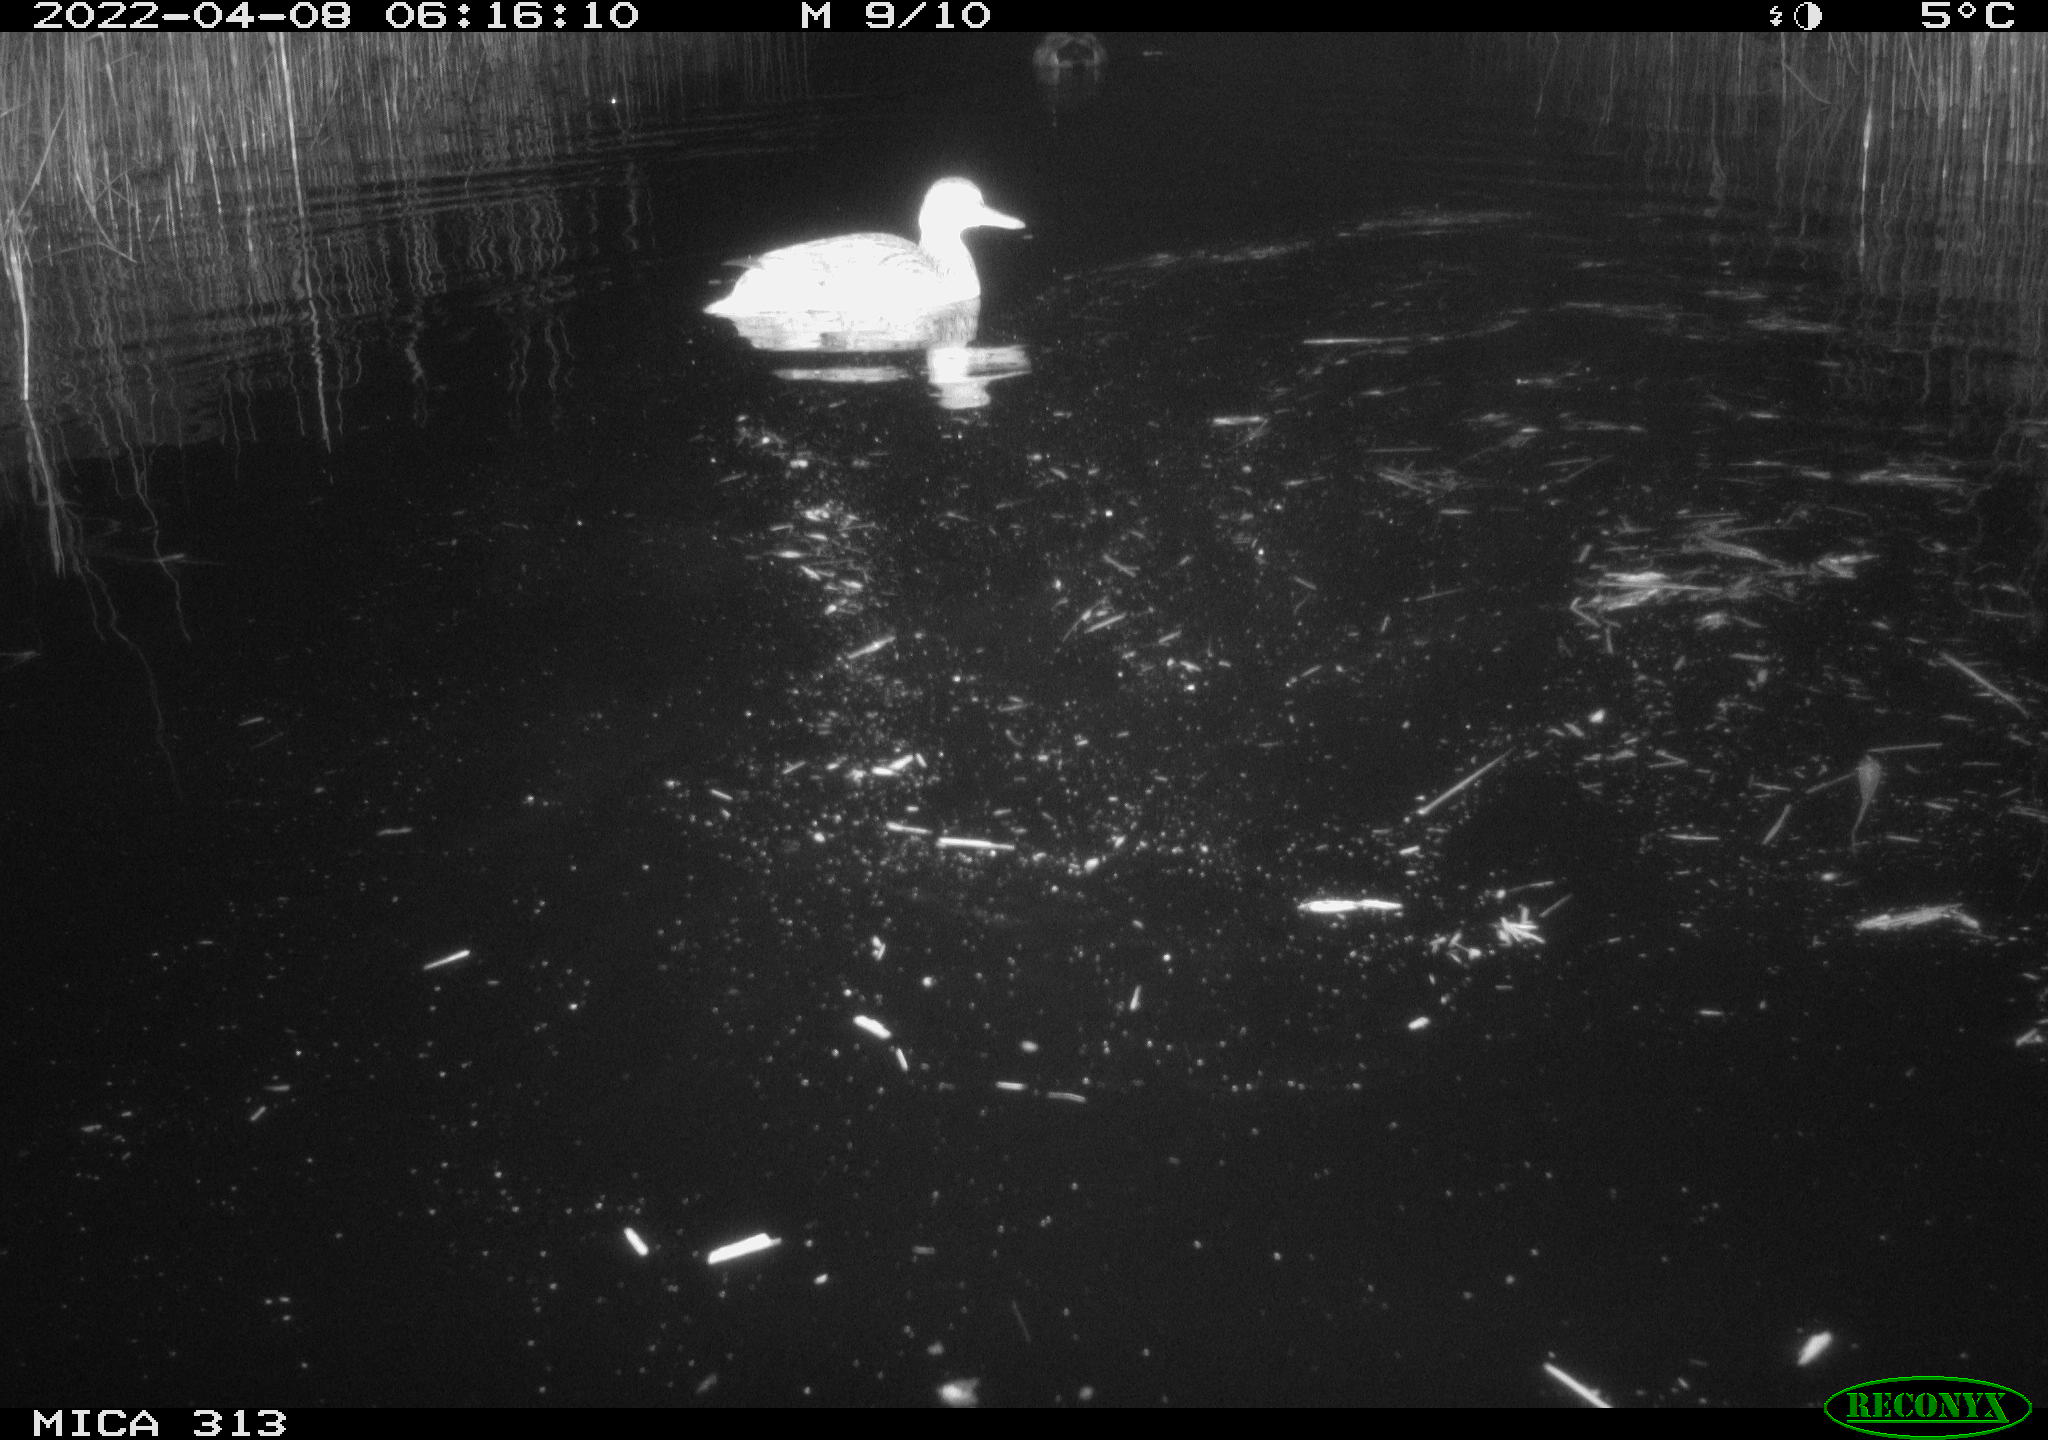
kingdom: Animalia
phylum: Chordata
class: Aves
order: Anseriformes
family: Anatidae
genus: Anas
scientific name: Anas platyrhynchos
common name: Mallard
